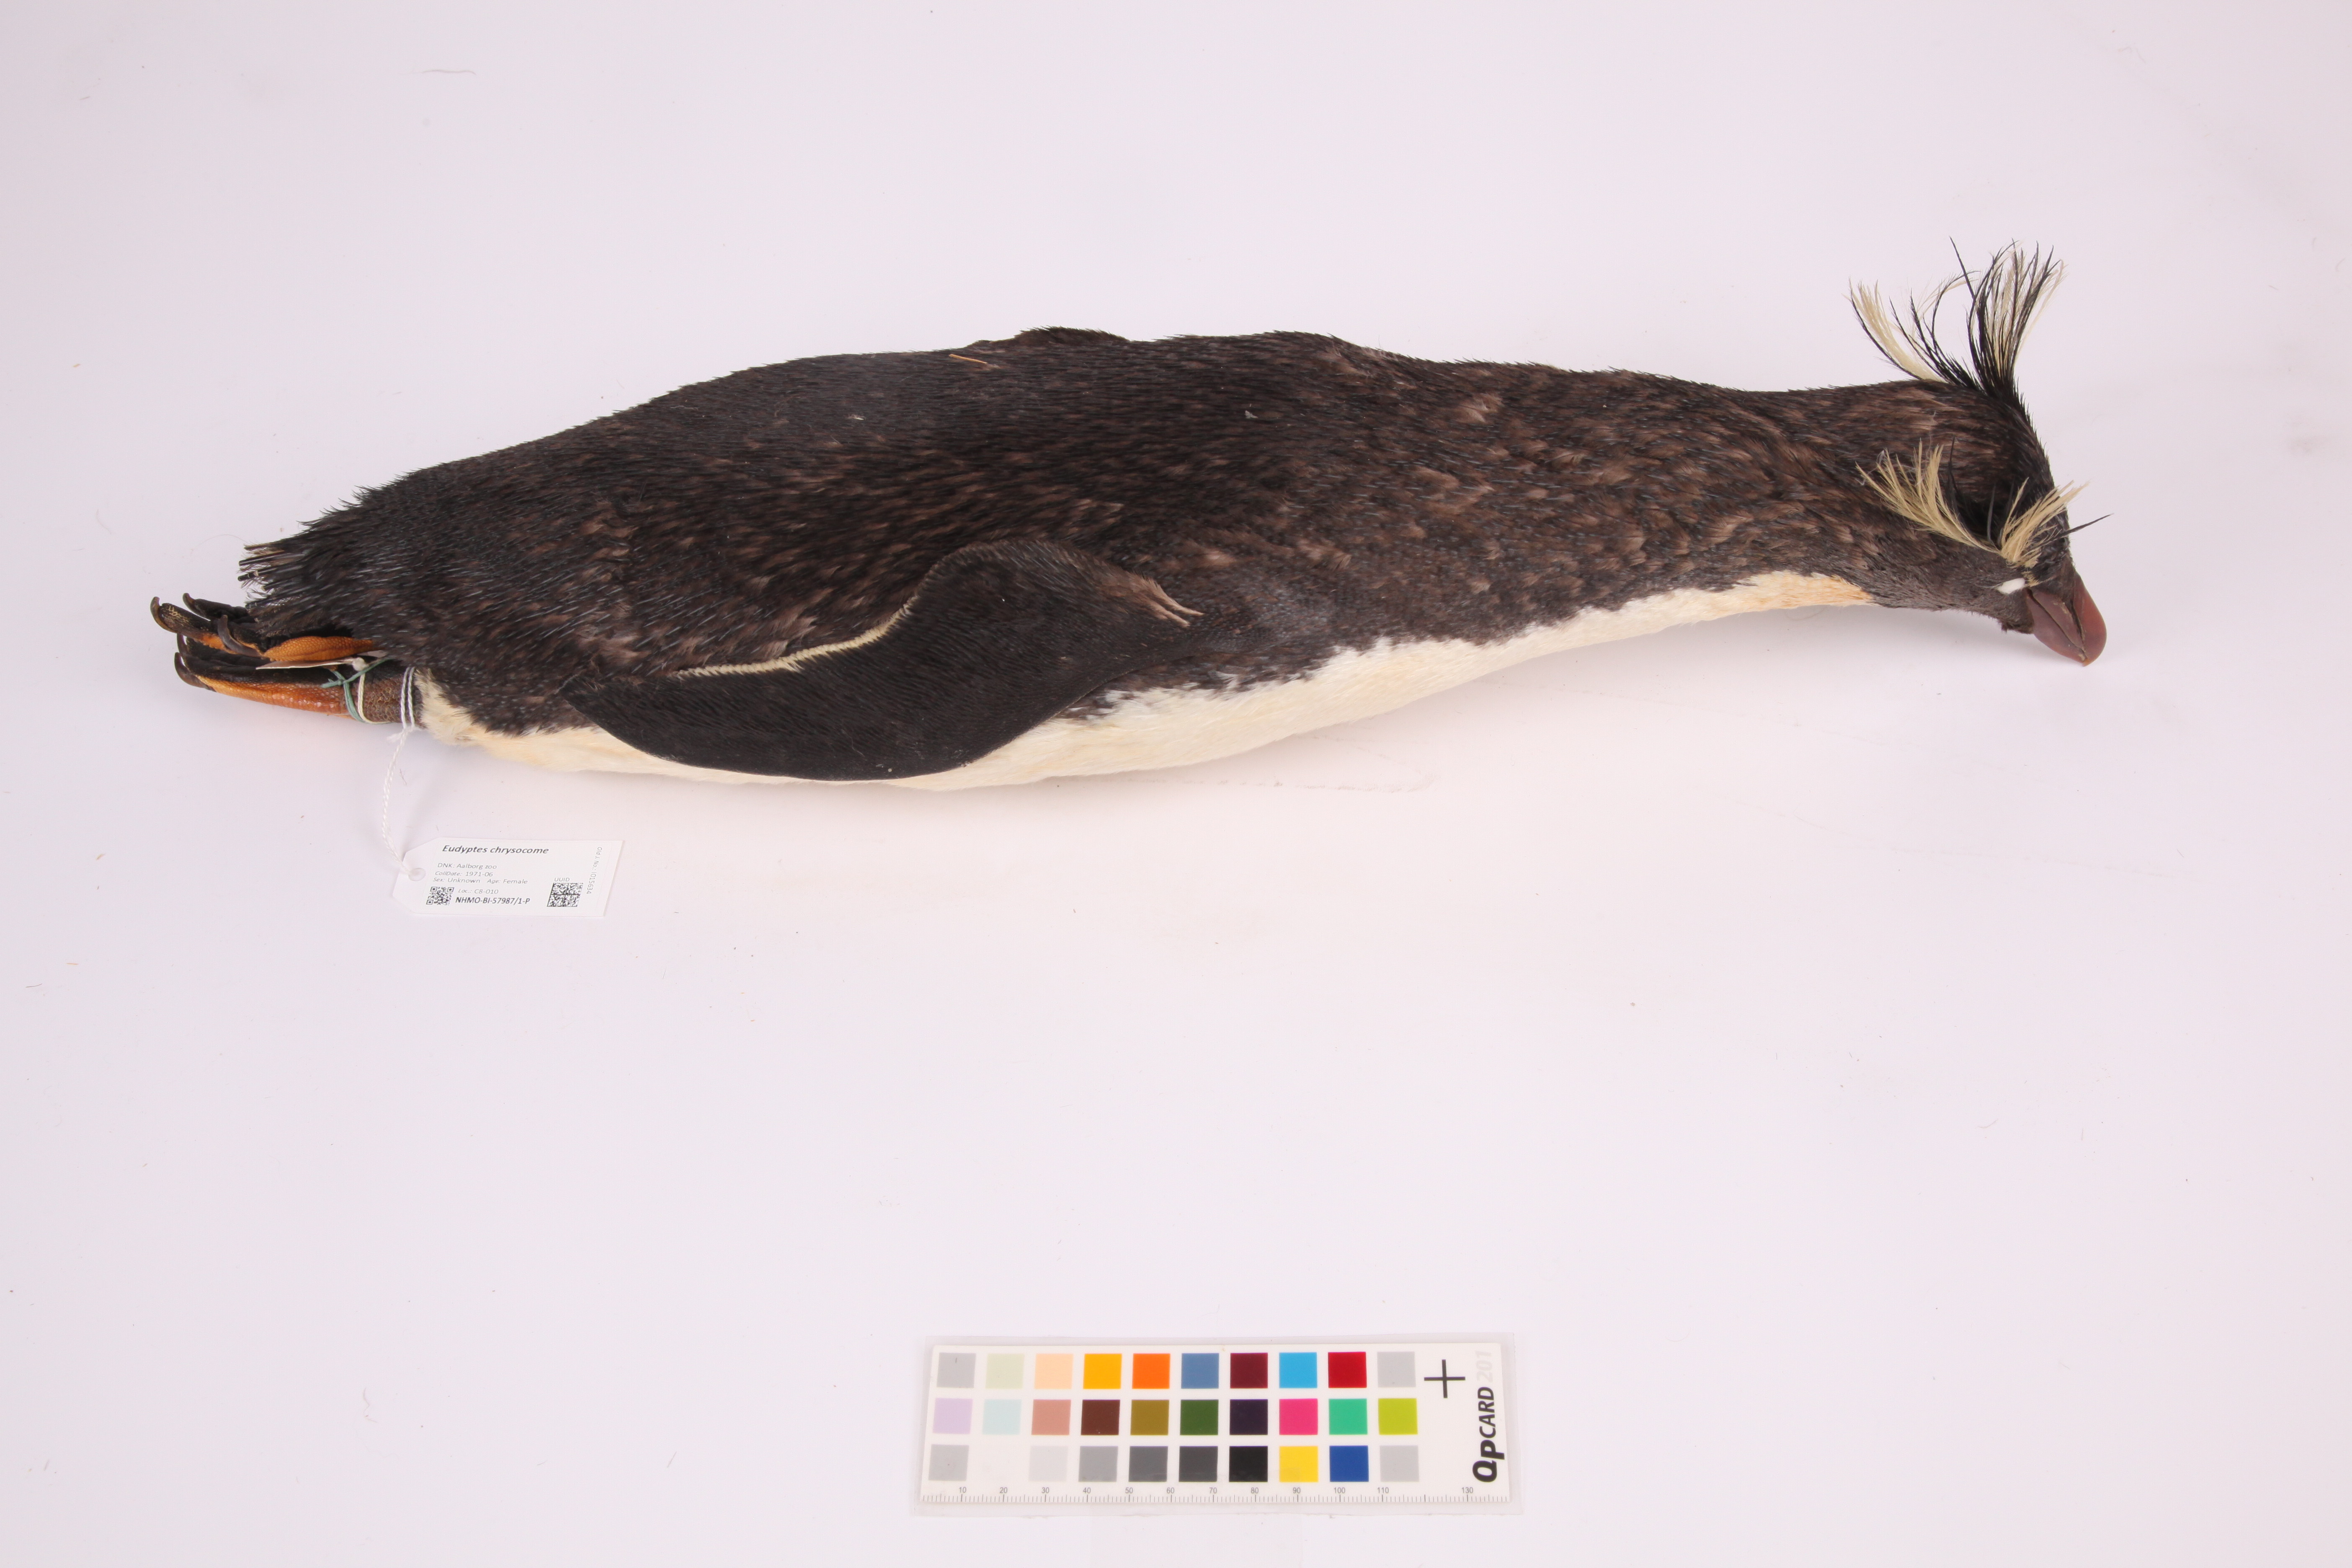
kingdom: Animalia
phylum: Chordata
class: Aves
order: Sphenisciformes
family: Spheniscidae
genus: Eudyptes
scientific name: Eudyptes chrysocome
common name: Southern rockhopper penguin
